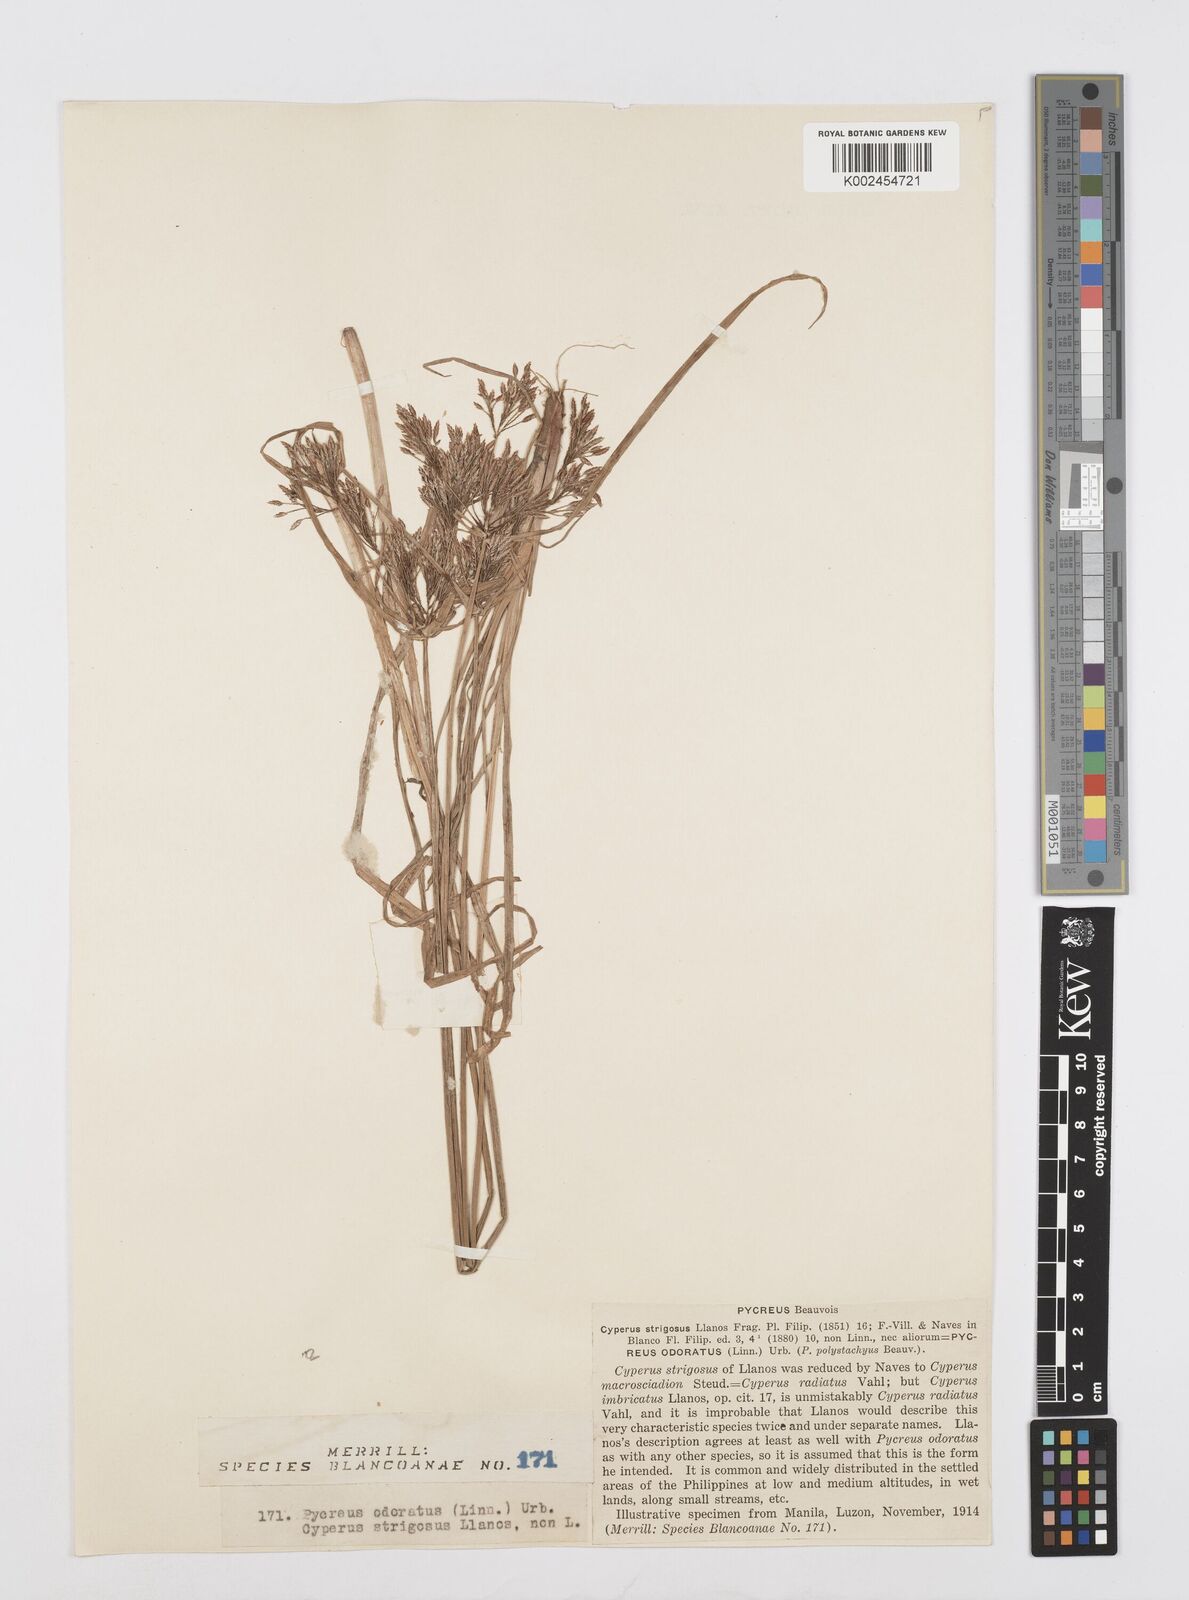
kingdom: Plantae
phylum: Tracheophyta
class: Liliopsida
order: Poales
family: Cyperaceae
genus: Cyperus
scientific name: Cyperus polystachyos
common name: Bunchy flat sedge
